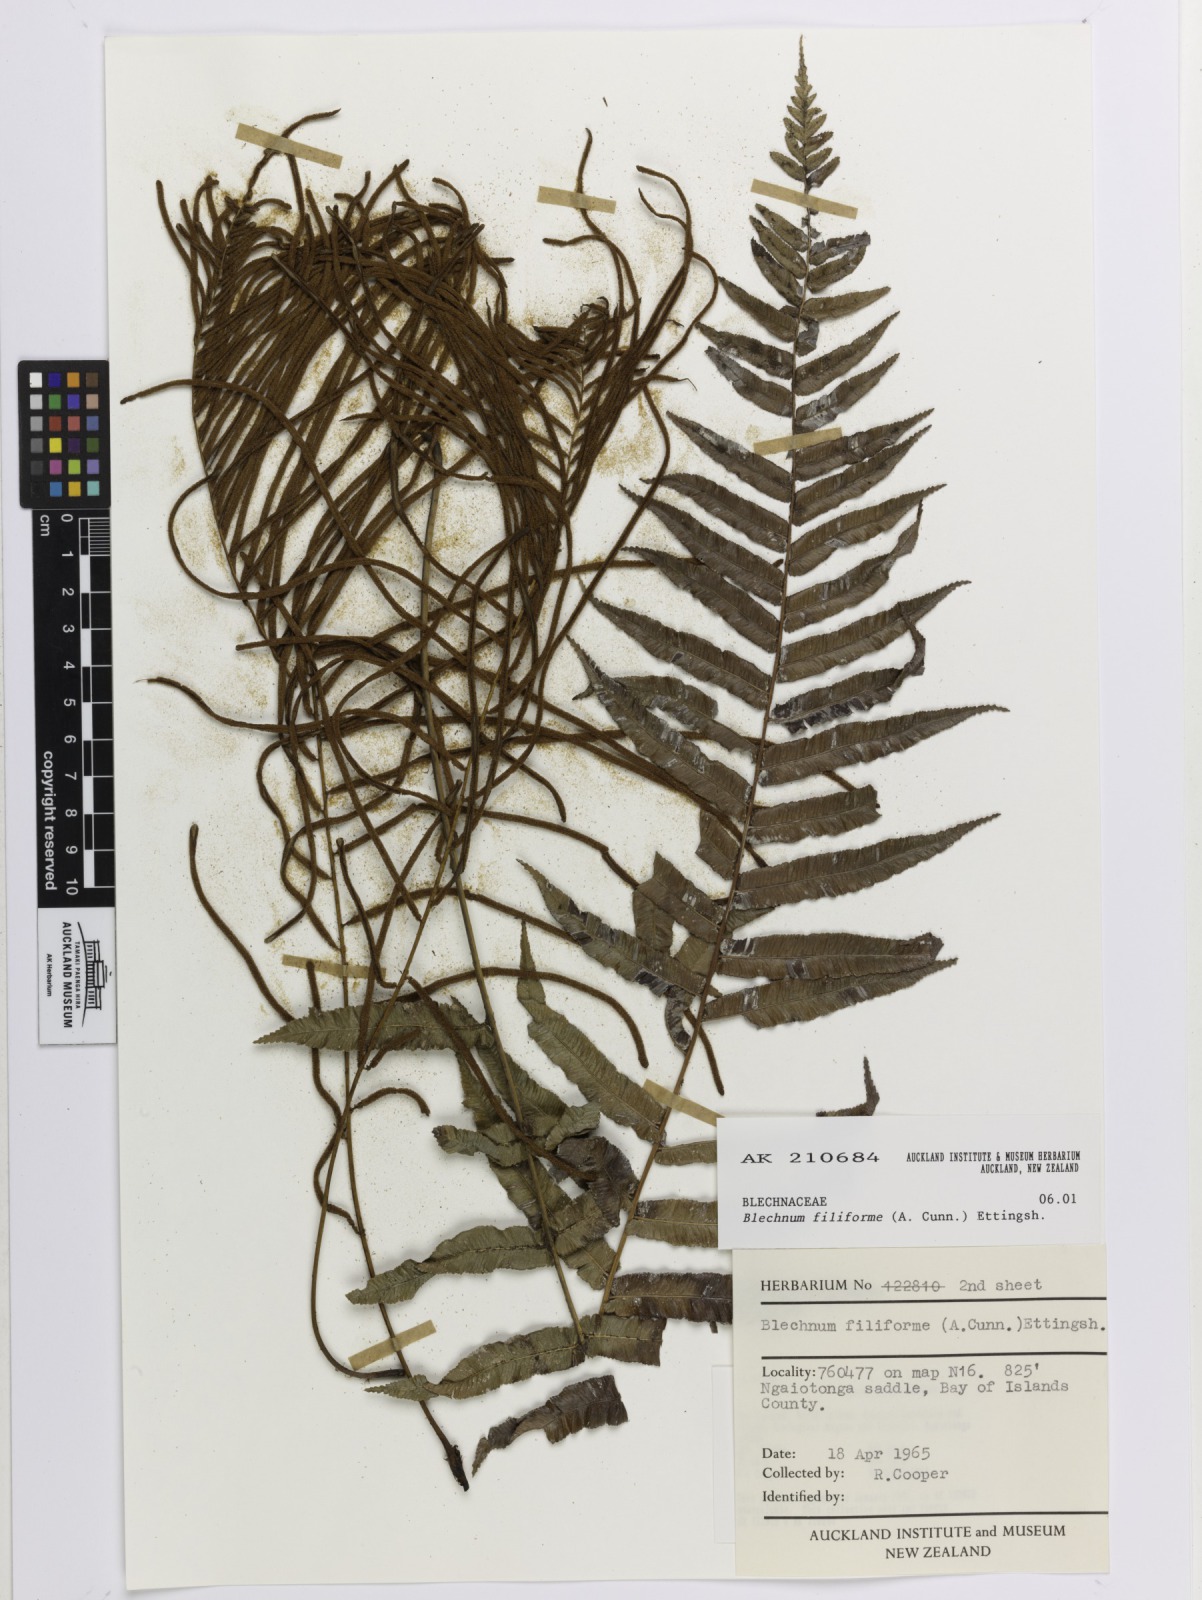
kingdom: Plantae
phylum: Tracheophyta
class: Polypodiopsida
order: Polypodiales
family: Blechnaceae
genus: Icarus
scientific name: Icarus filiformis
